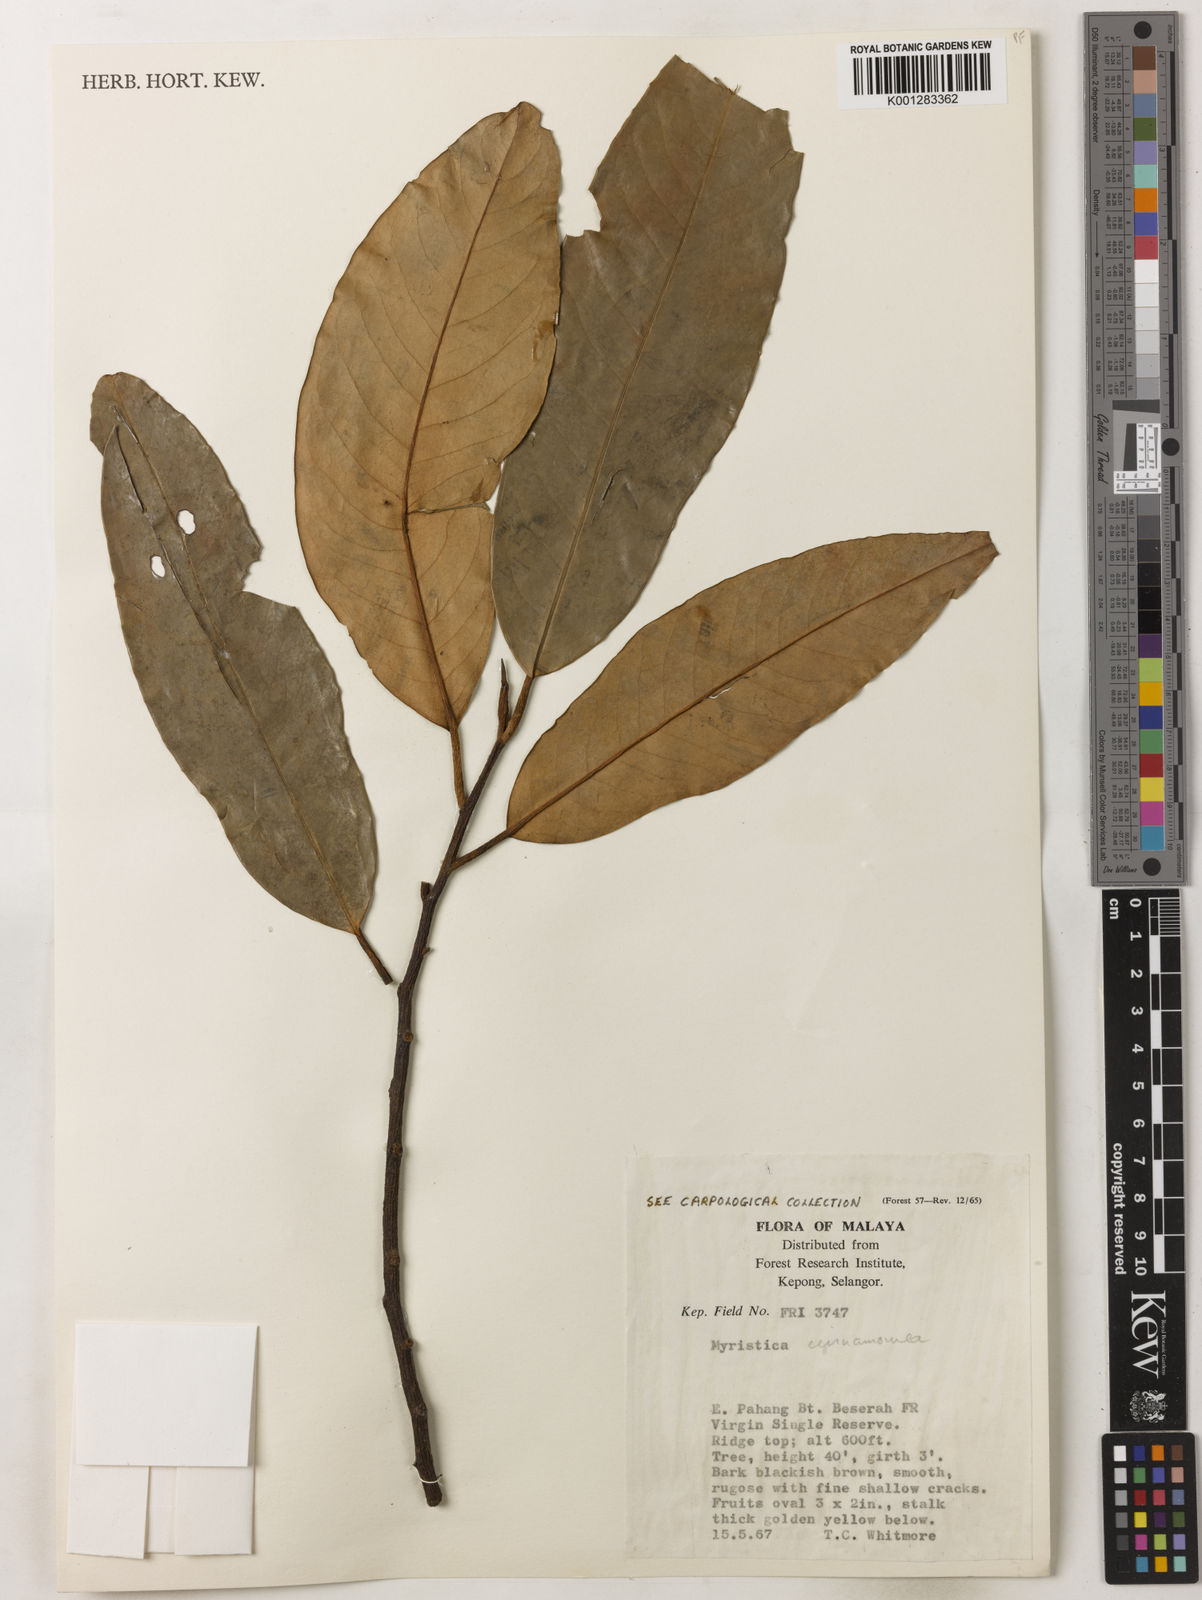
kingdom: Plantae
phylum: Tracheophyta
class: Magnoliopsida
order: Magnoliales
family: Myristicaceae
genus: Myristica
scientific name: Myristica cinnamomea
